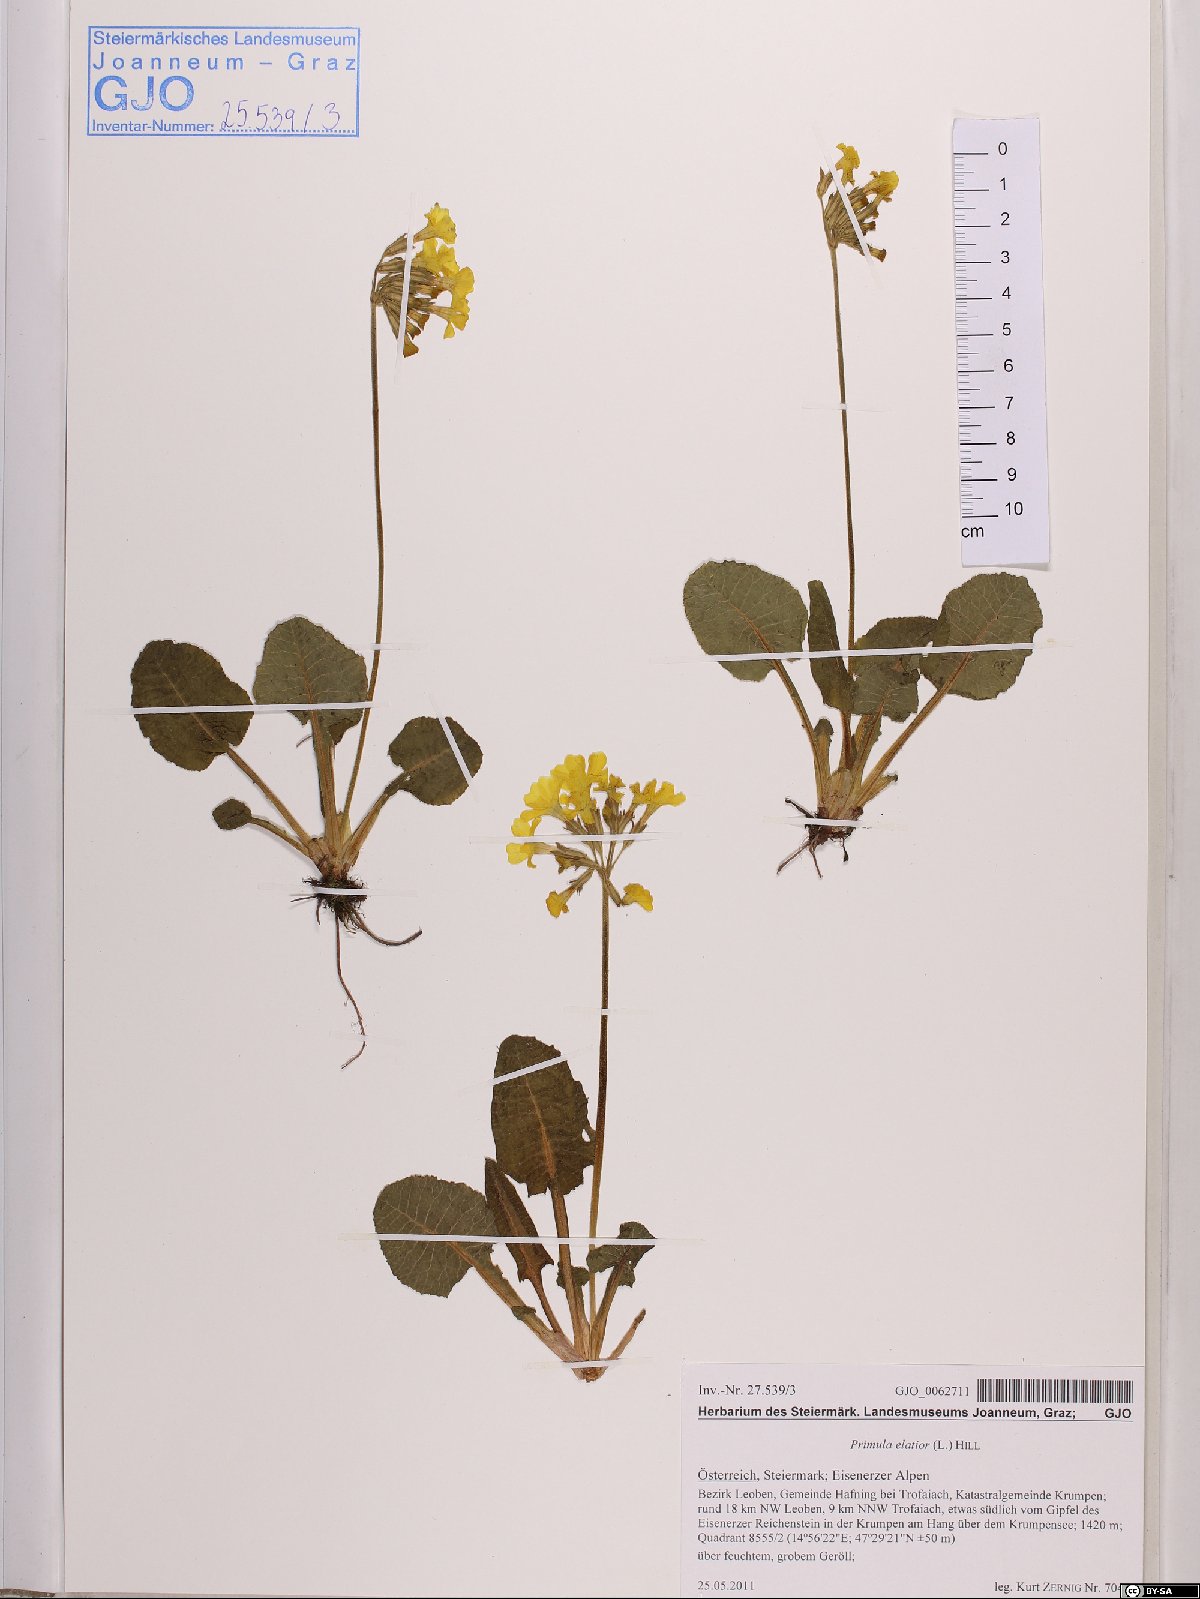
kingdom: Plantae
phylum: Tracheophyta
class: Magnoliopsida
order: Ericales
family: Primulaceae
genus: Primula
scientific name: Primula elatior
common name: Oxlip
